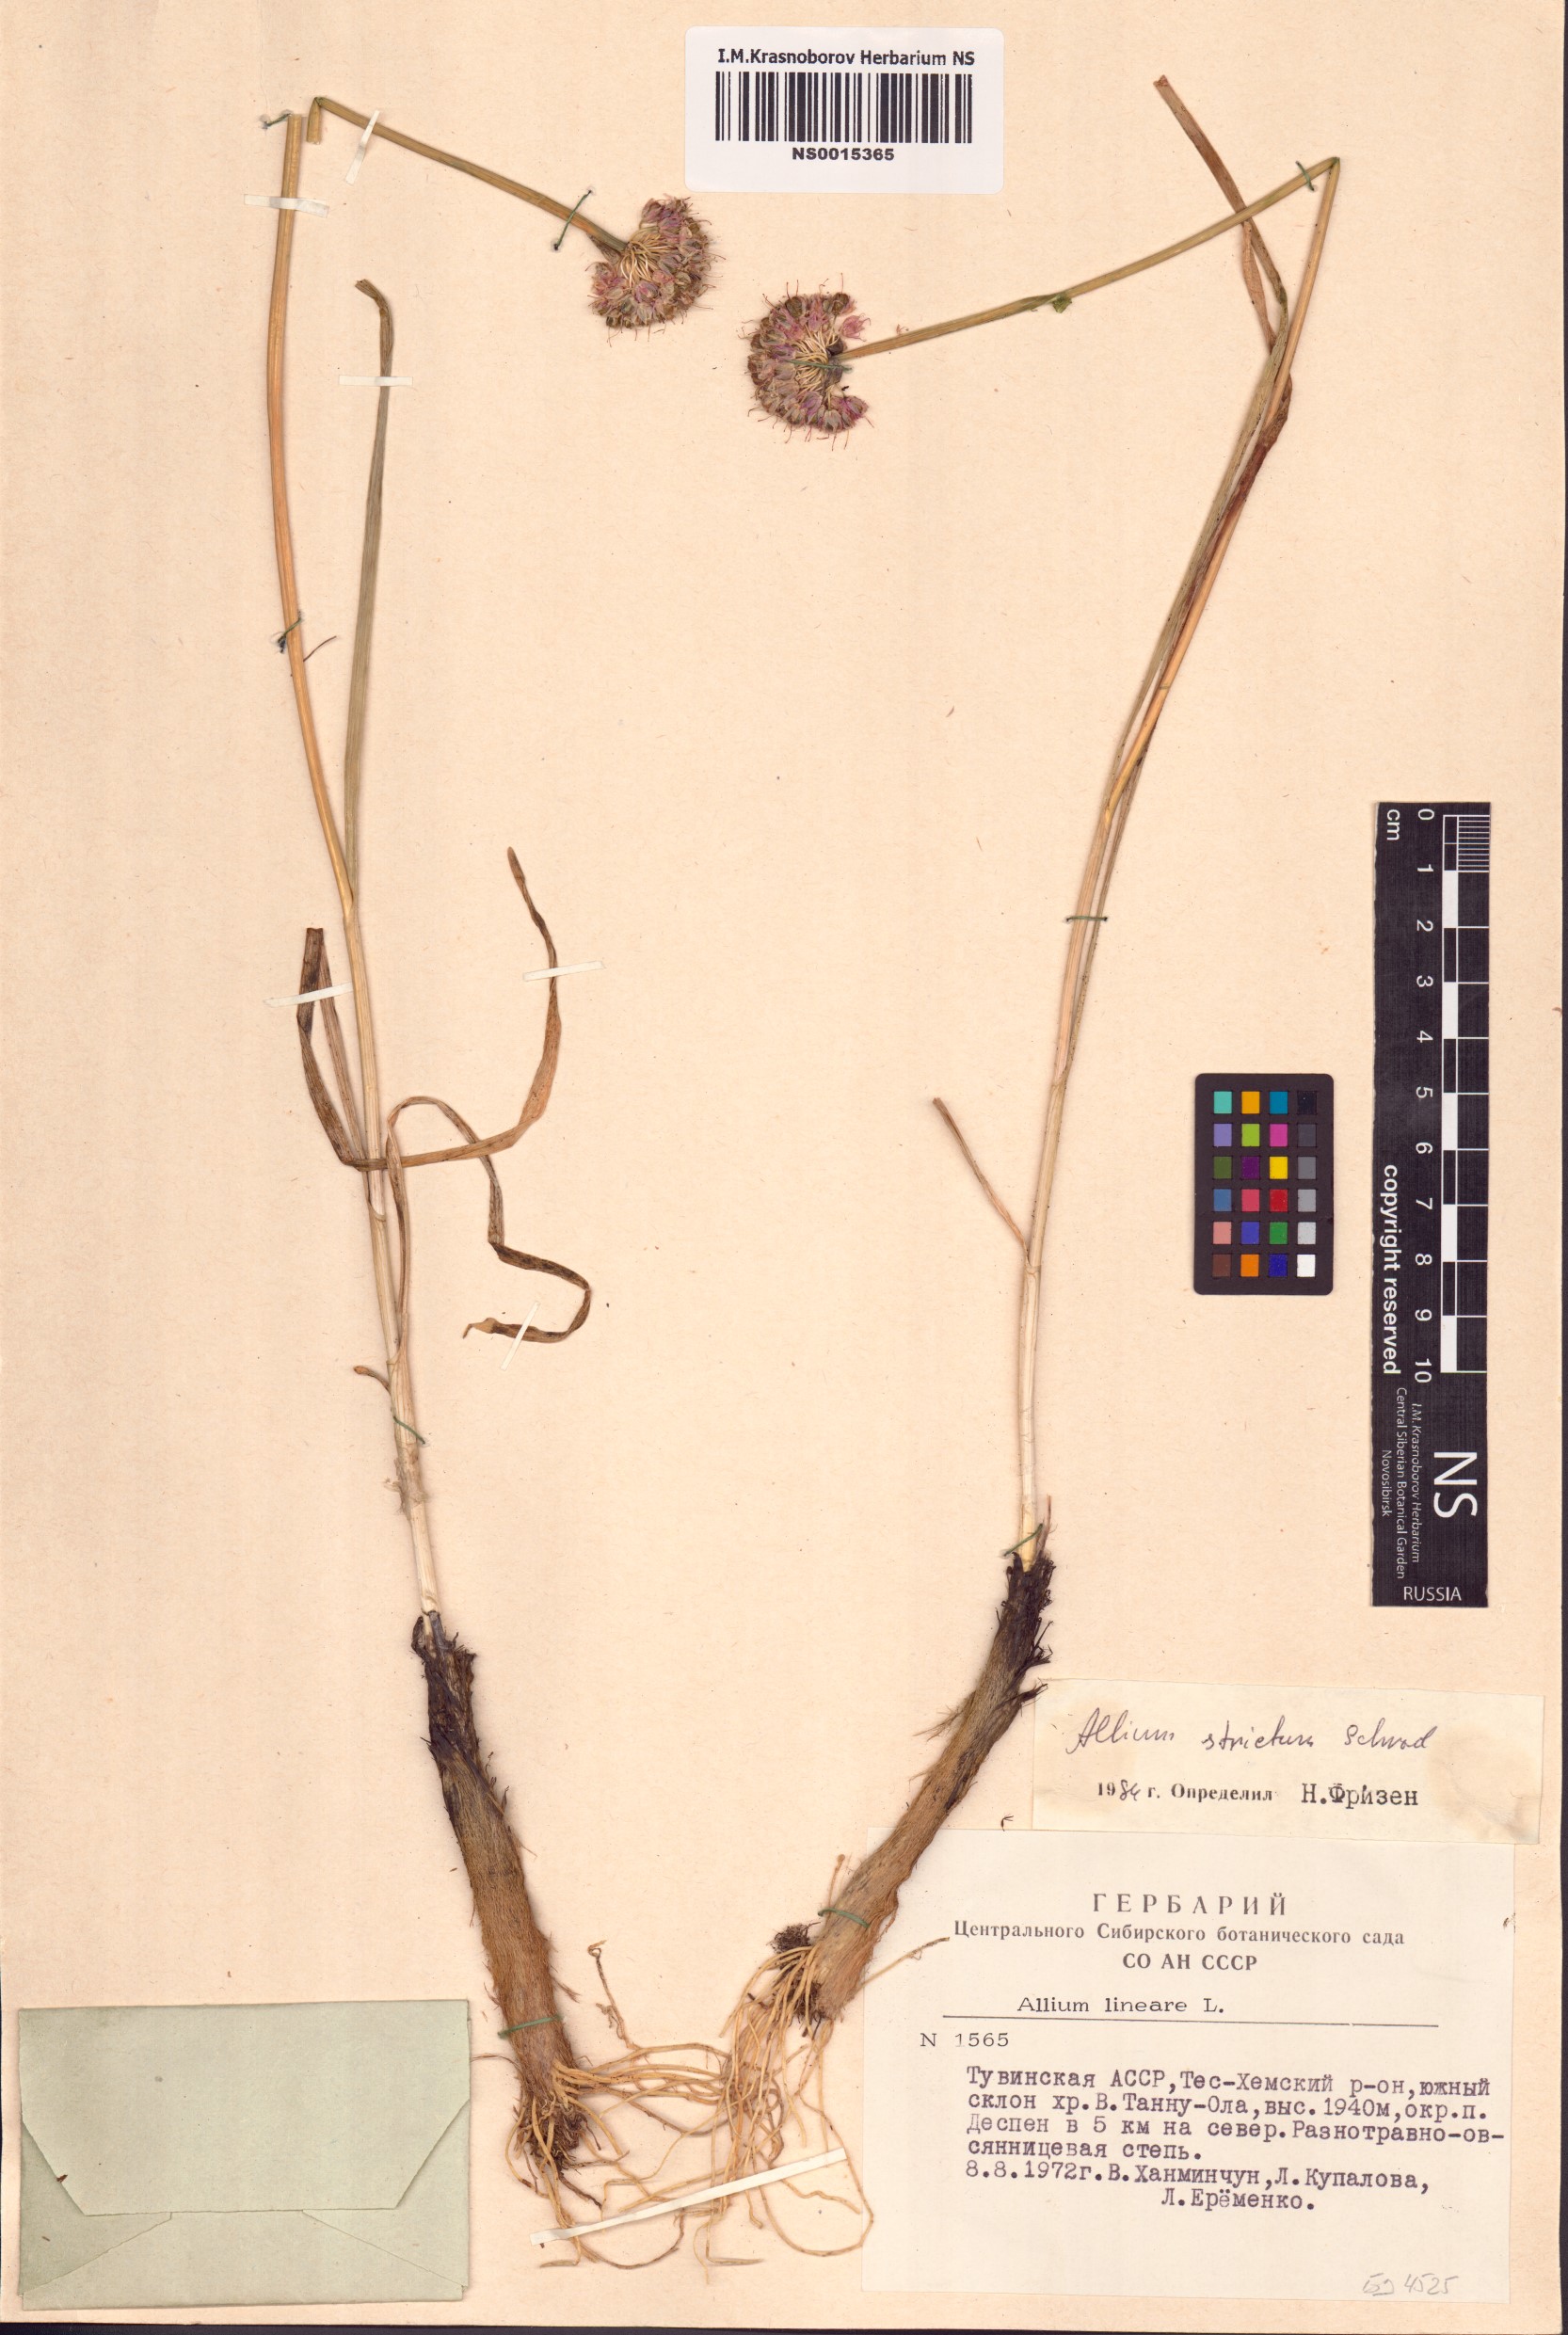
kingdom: Plantae
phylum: Tracheophyta
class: Liliopsida
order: Asparagales
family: Amaryllidaceae
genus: Allium
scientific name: Allium strictum
